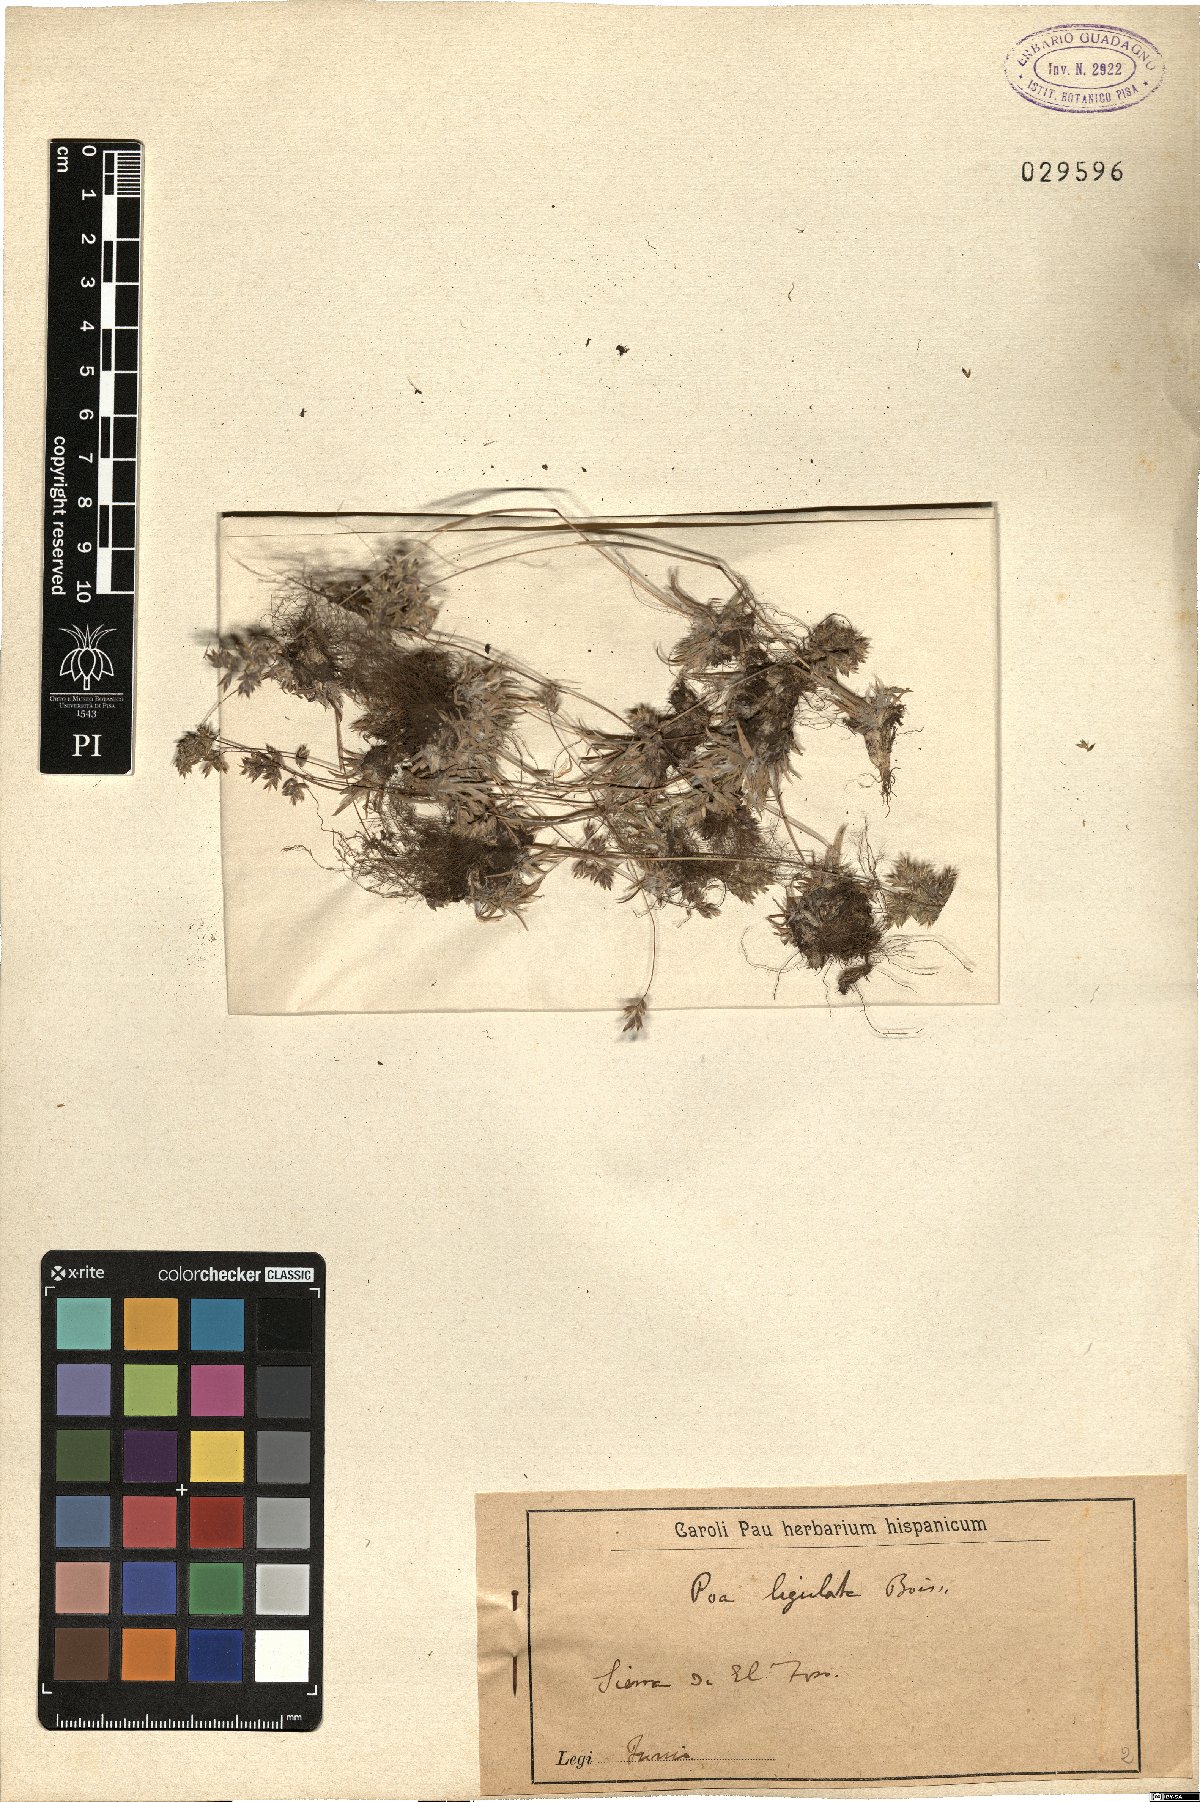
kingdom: Plantae
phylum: Tracheophyta
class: Liliopsida
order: Poales
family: Poaceae
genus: Poa
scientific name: Poa ligulata
